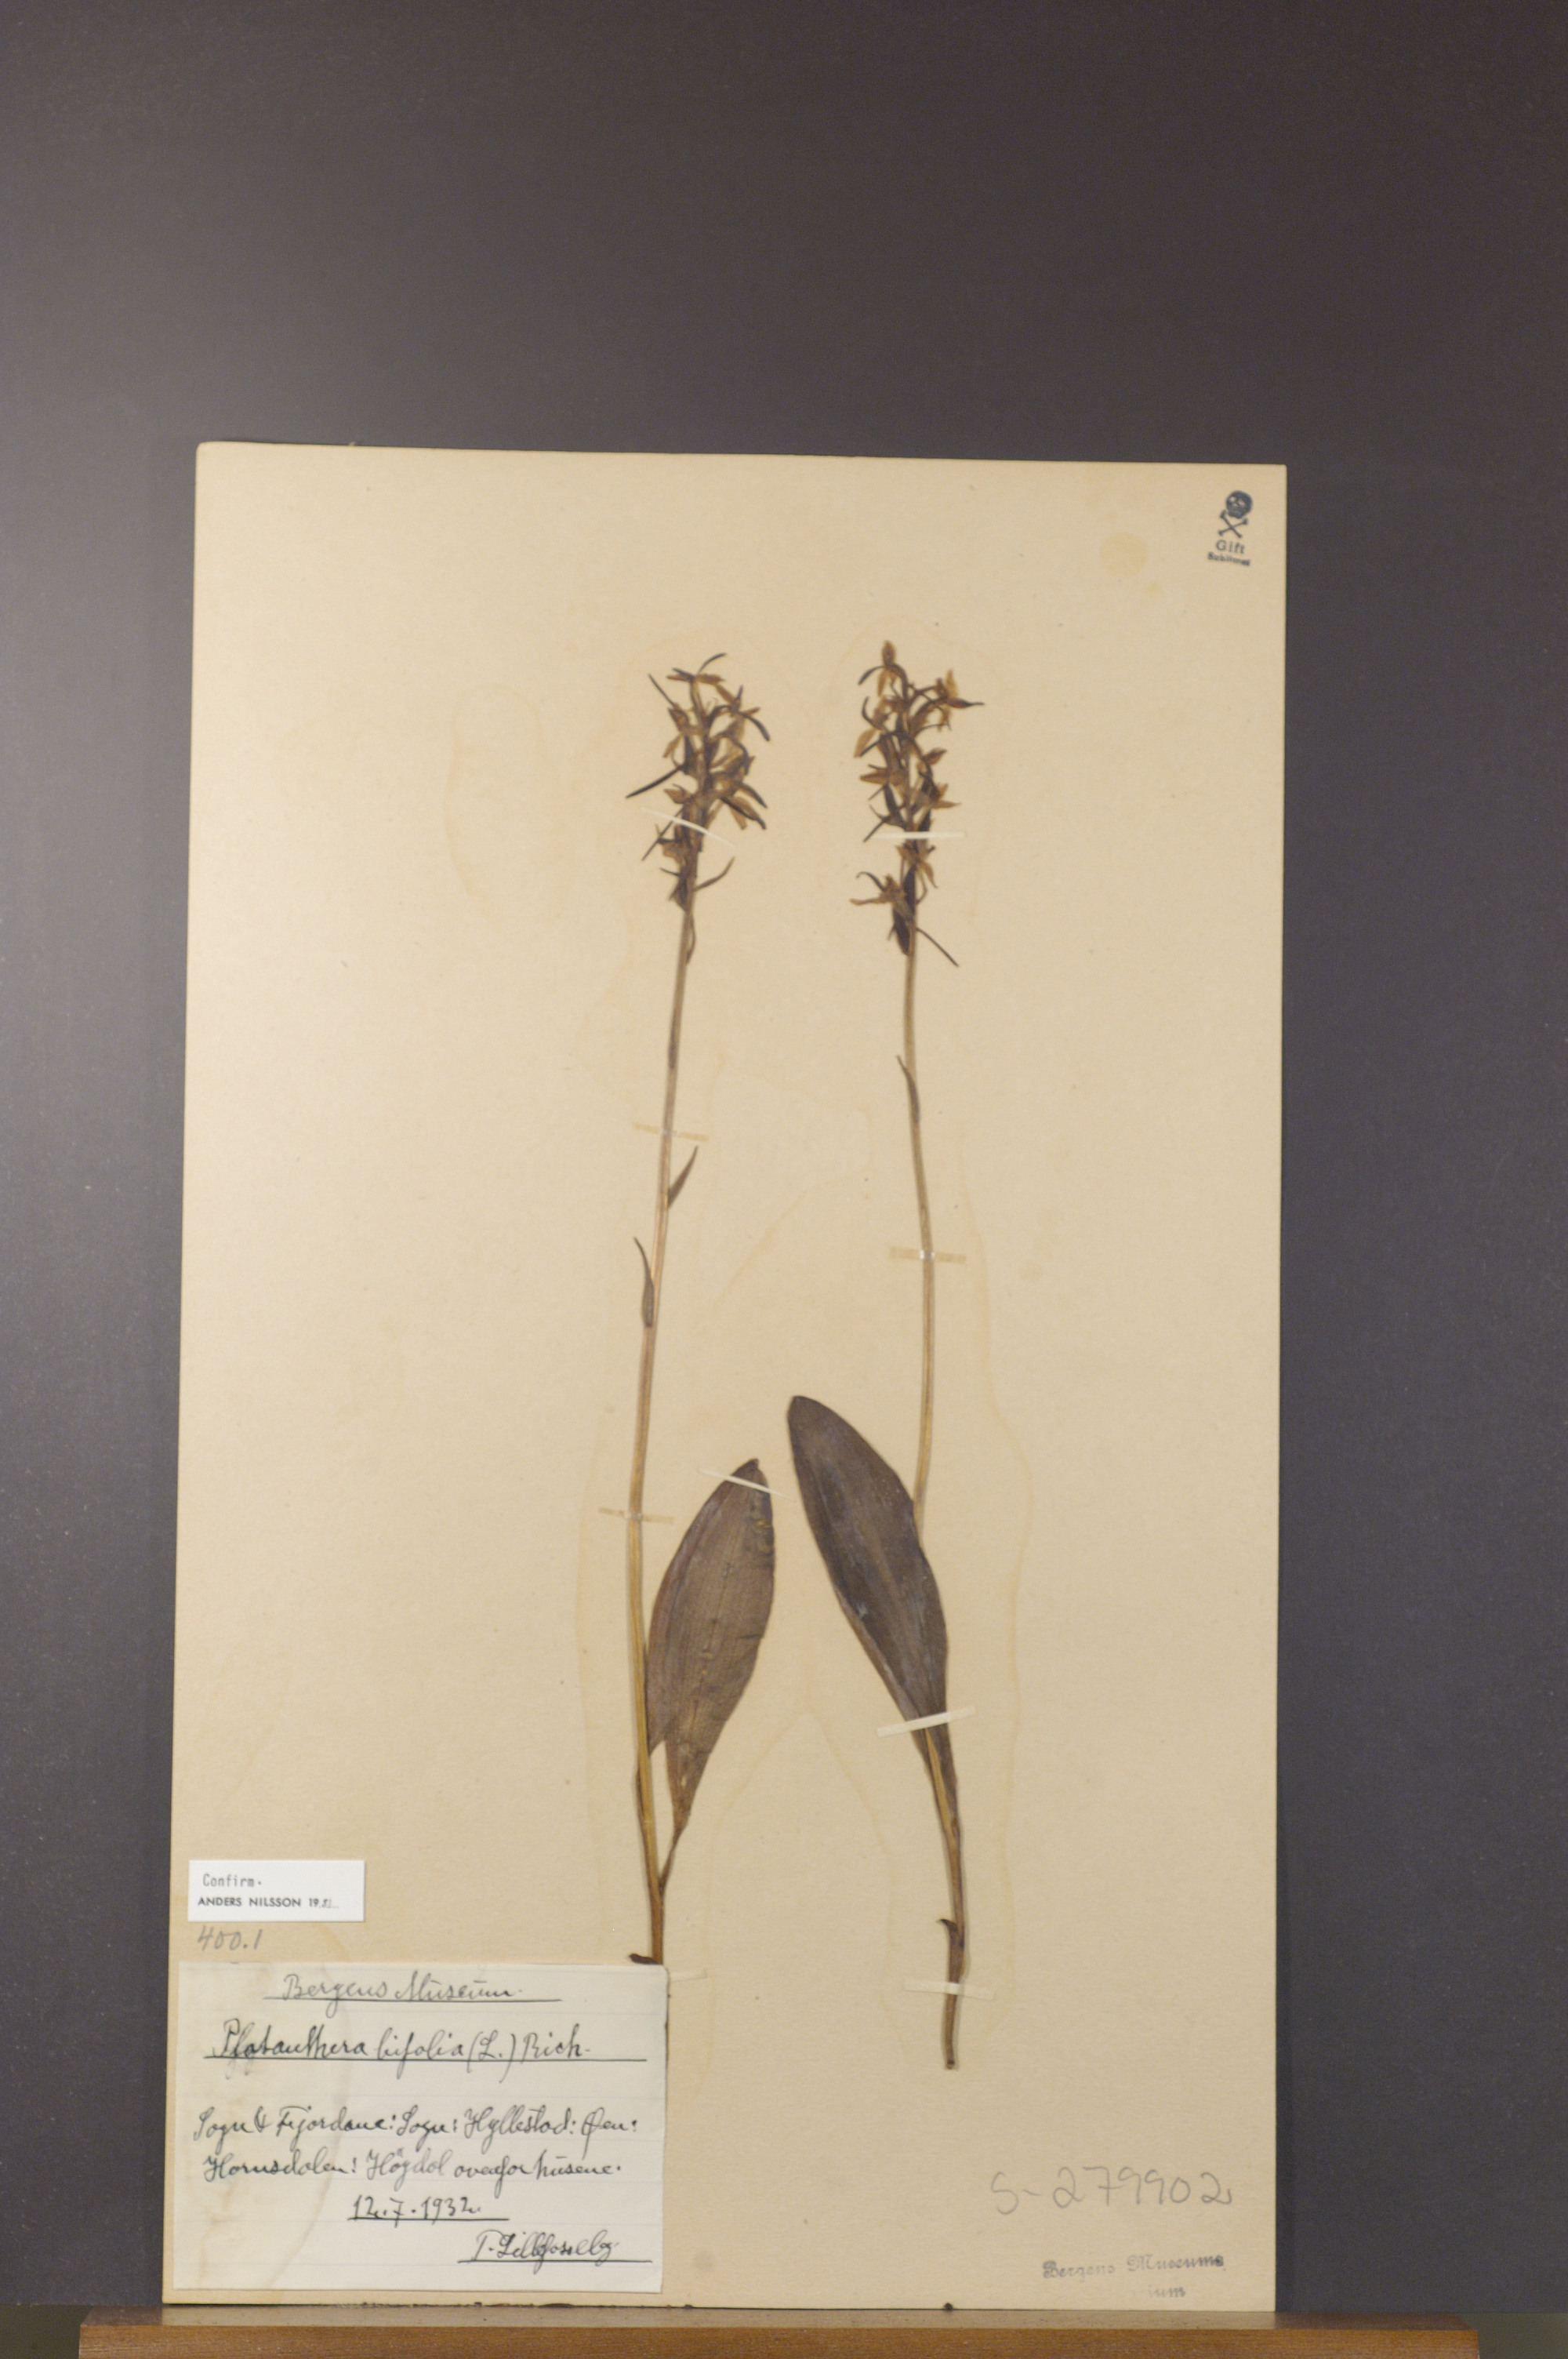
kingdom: Plantae
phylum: Tracheophyta
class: Liliopsida
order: Asparagales
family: Orchidaceae
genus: Platanthera
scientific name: Platanthera bifolia
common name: Lesser butterfly-orchid
